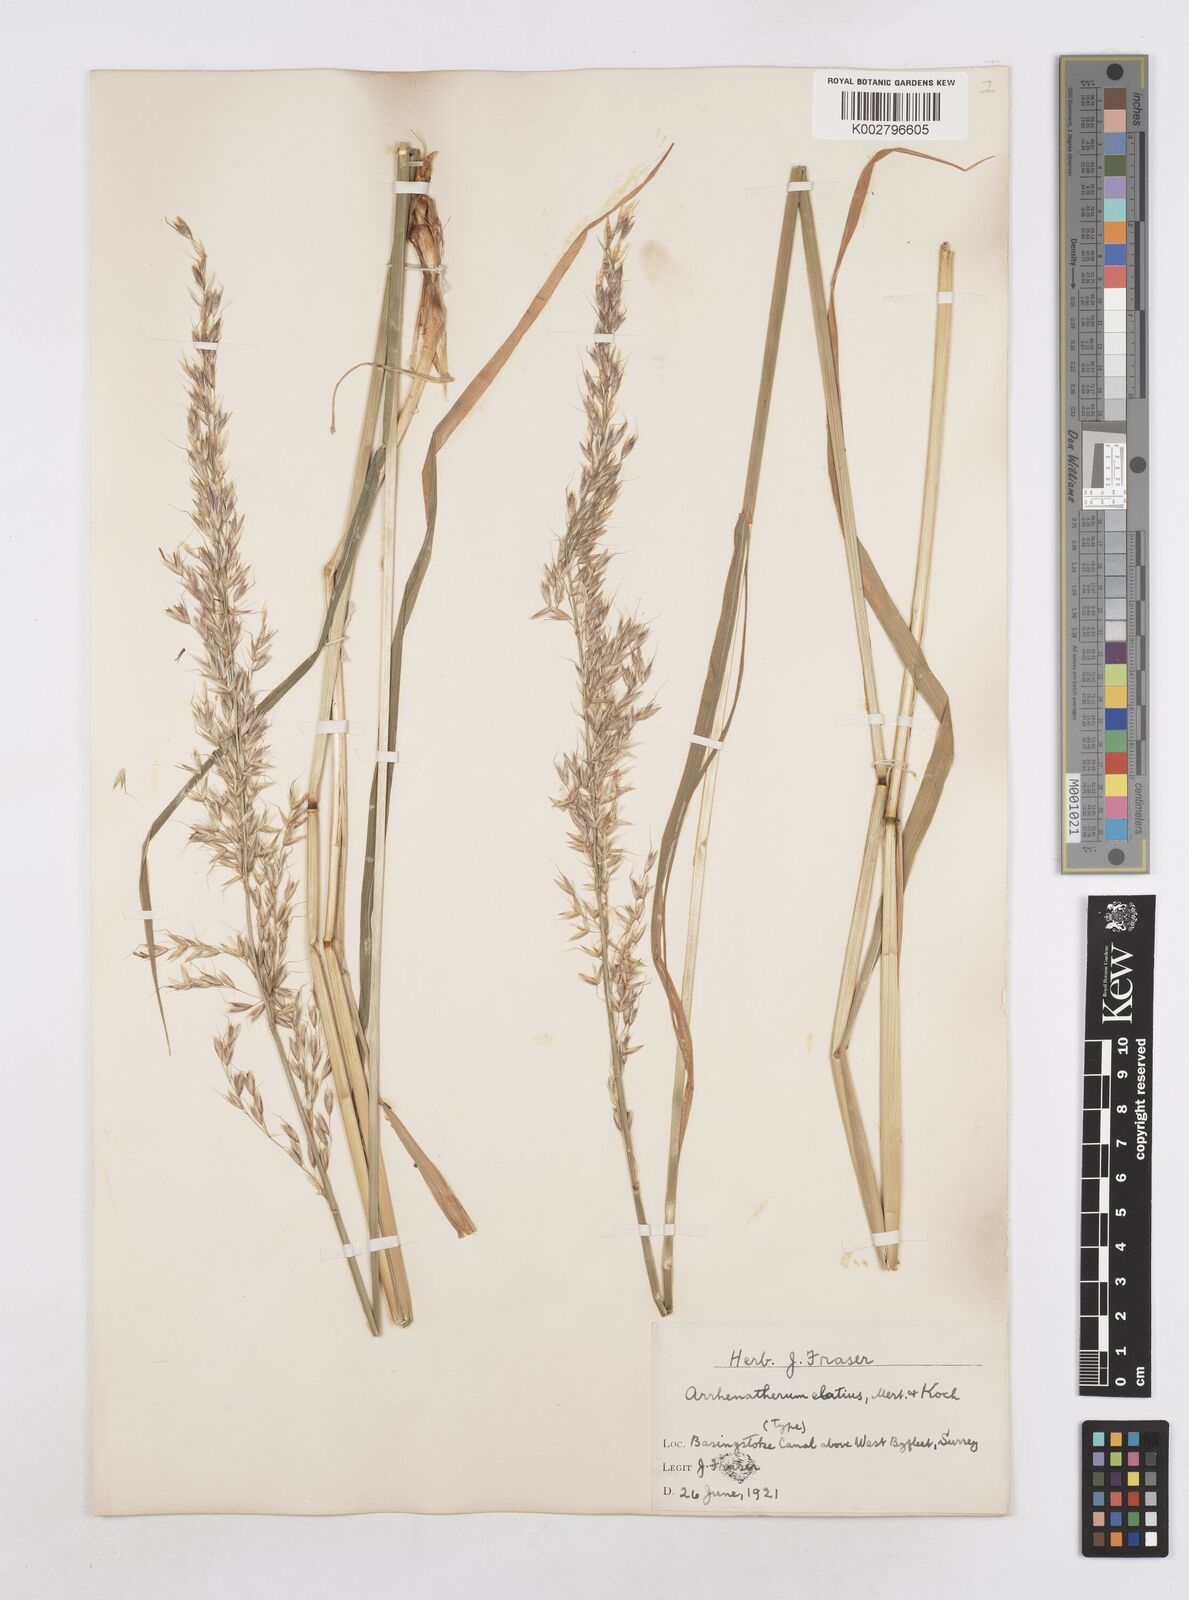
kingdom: Plantae
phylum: Tracheophyta
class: Liliopsida
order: Poales
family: Poaceae
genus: Arrhenatherum
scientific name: Arrhenatherum elatius
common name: Tall oatgrass
